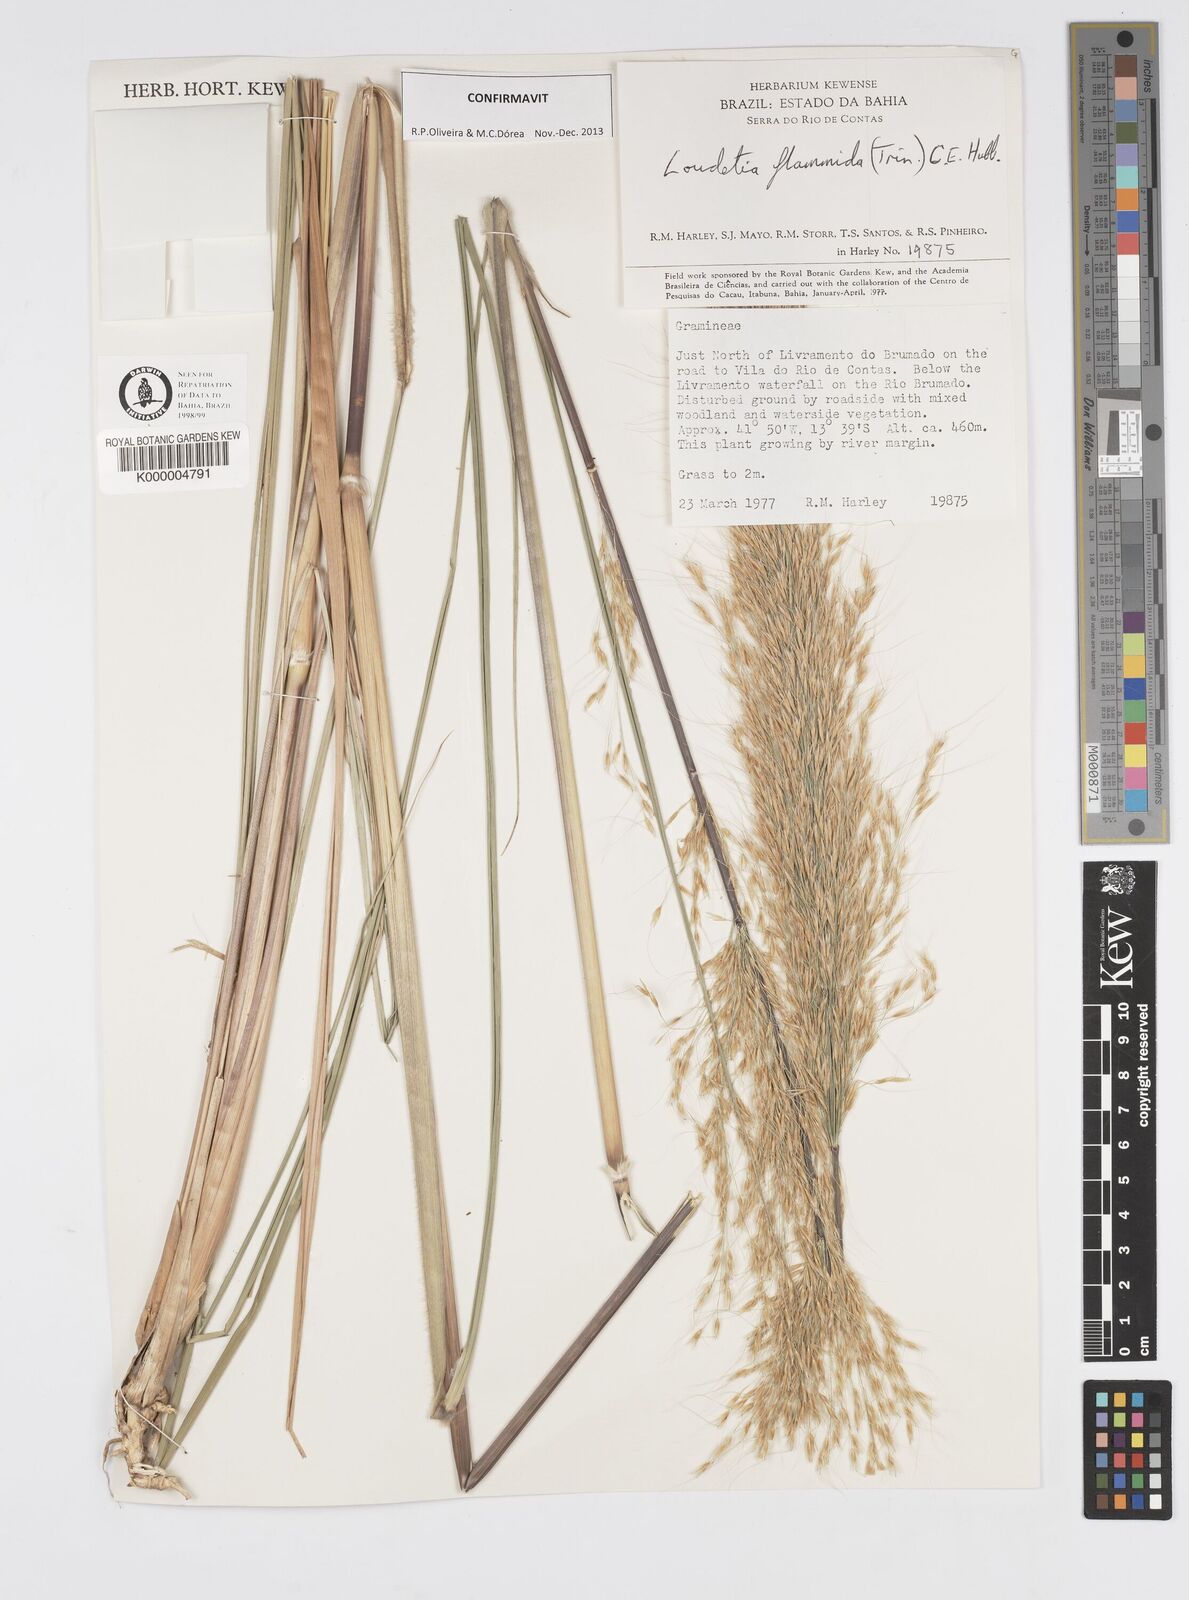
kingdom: Plantae
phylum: Tracheophyta
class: Liliopsida
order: Poales
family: Poaceae
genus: Loudetia
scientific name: Loudetia flammida
